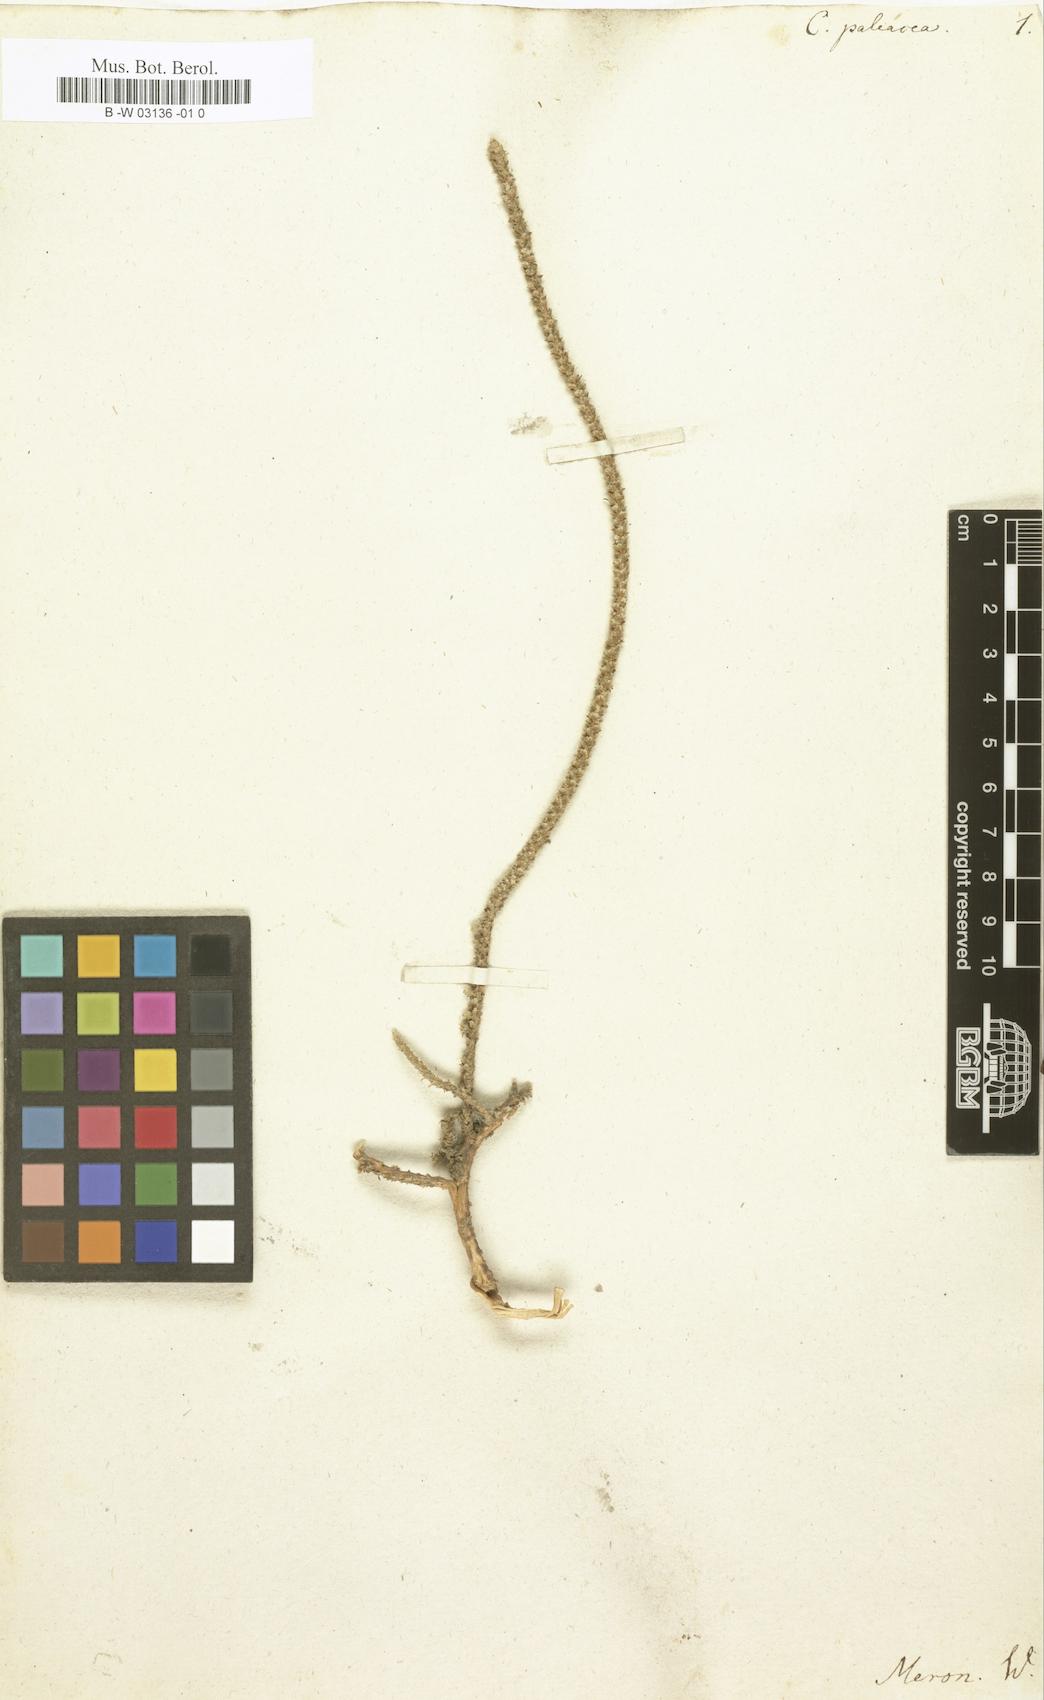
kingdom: Plantae
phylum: Tracheophyta
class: Magnoliopsida
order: Caryophyllales
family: Molluginaceae
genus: Polpoda
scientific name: Polpoda capensis
